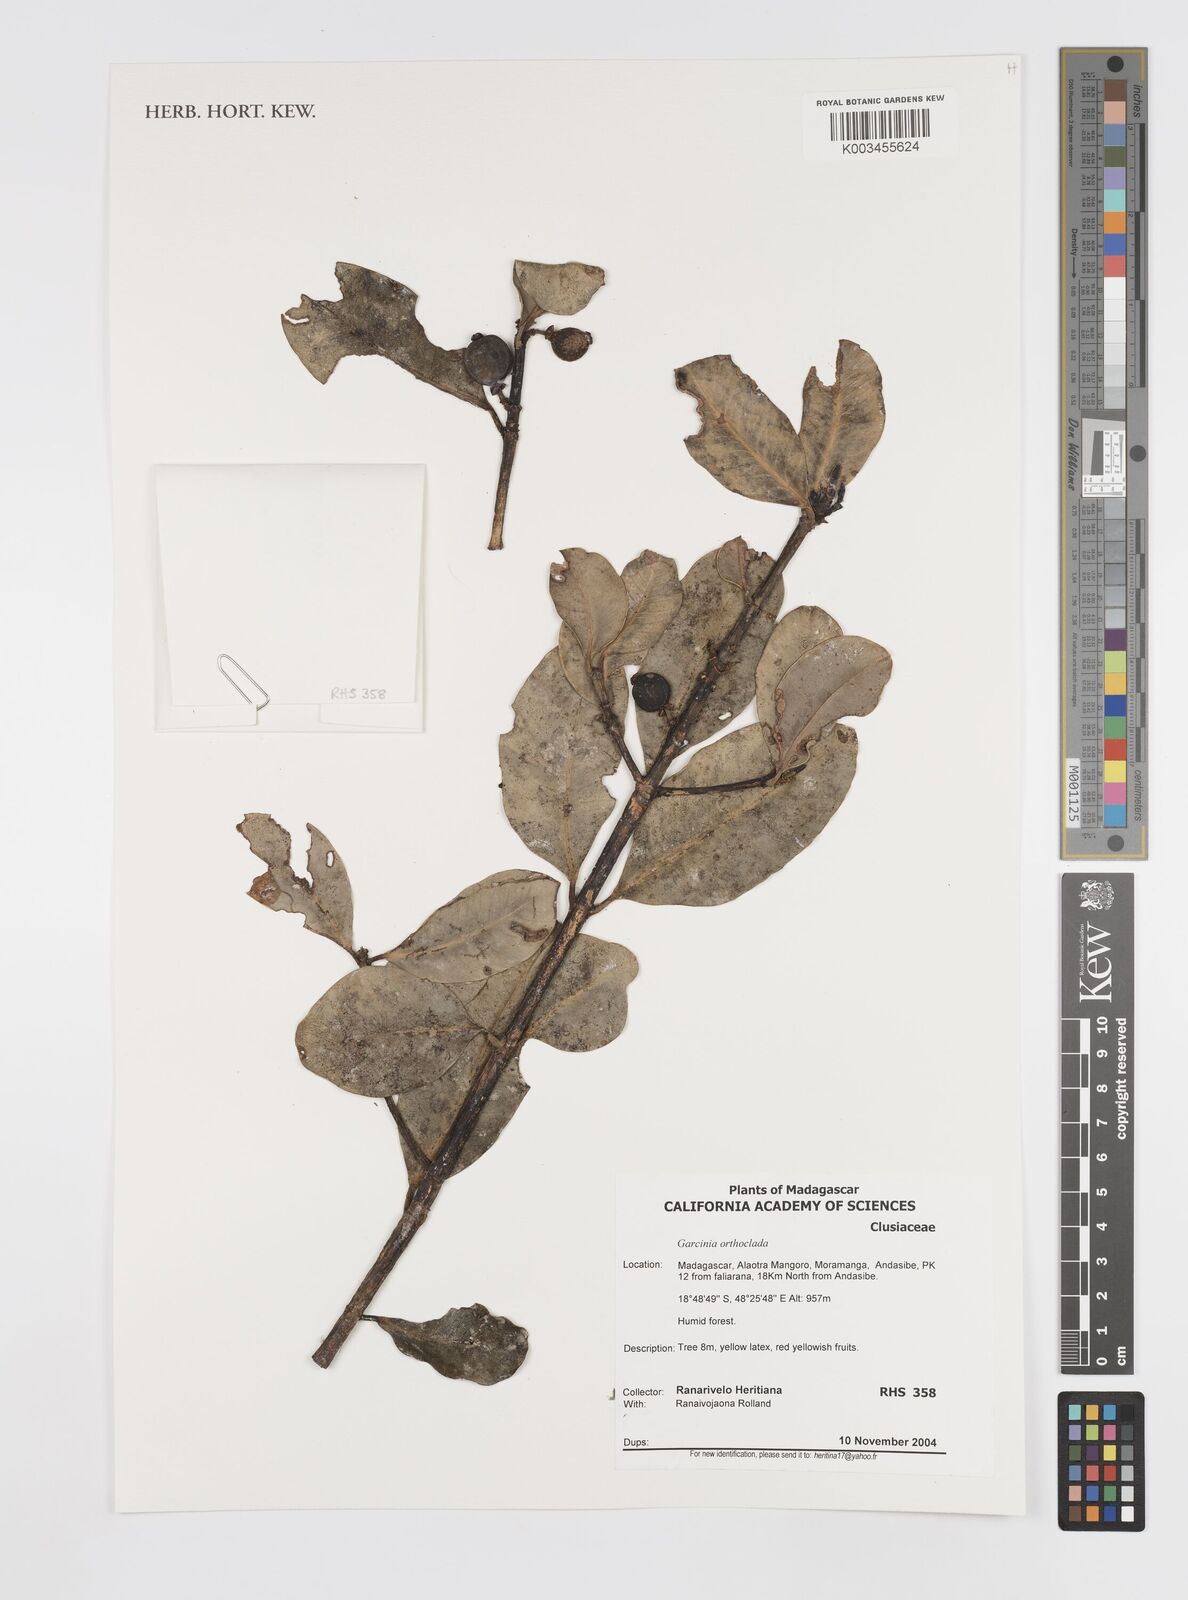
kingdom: Plantae
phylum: Tracheophyta
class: Magnoliopsida
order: Malpighiales
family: Clusiaceae
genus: Garcinia
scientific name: Garcinia orthoclada
